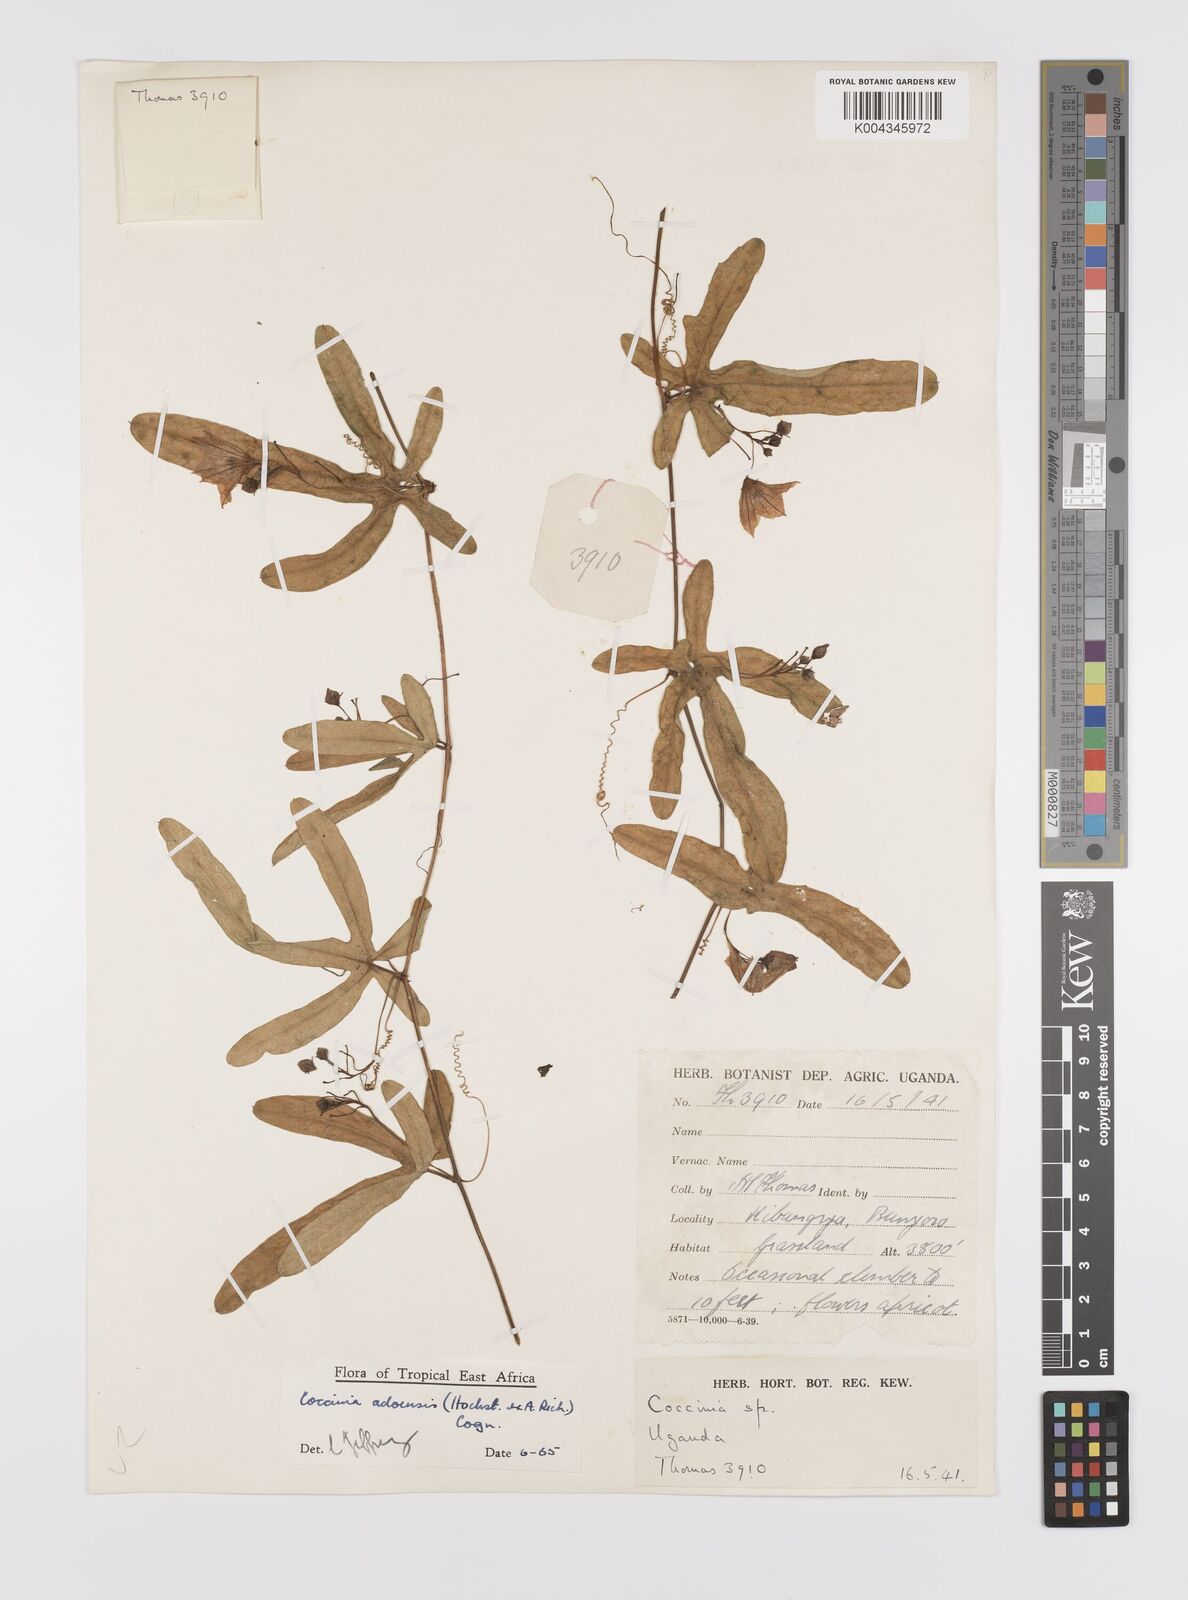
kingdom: Plantae
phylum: Tracheophyta
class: Magnoliopsida
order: Cucurbitales
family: Cucurbitaceae
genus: Coccinia
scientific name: Coccinia adoensis
